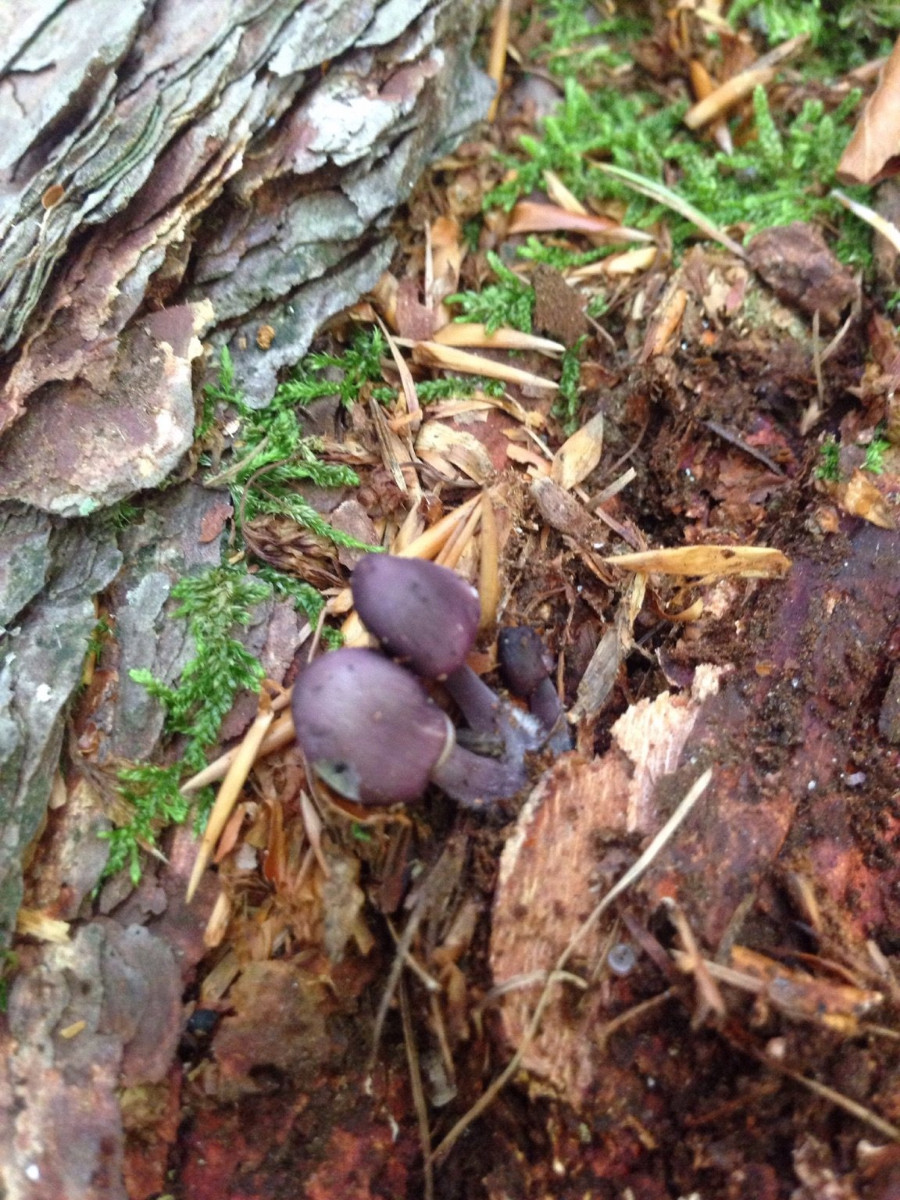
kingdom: Fungi
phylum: Basidiomycota
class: Agaricomycetes
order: Agaricales
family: Mycenaceae
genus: Mycena
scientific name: Mycena purpureofusca
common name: purpur-huesvamp
